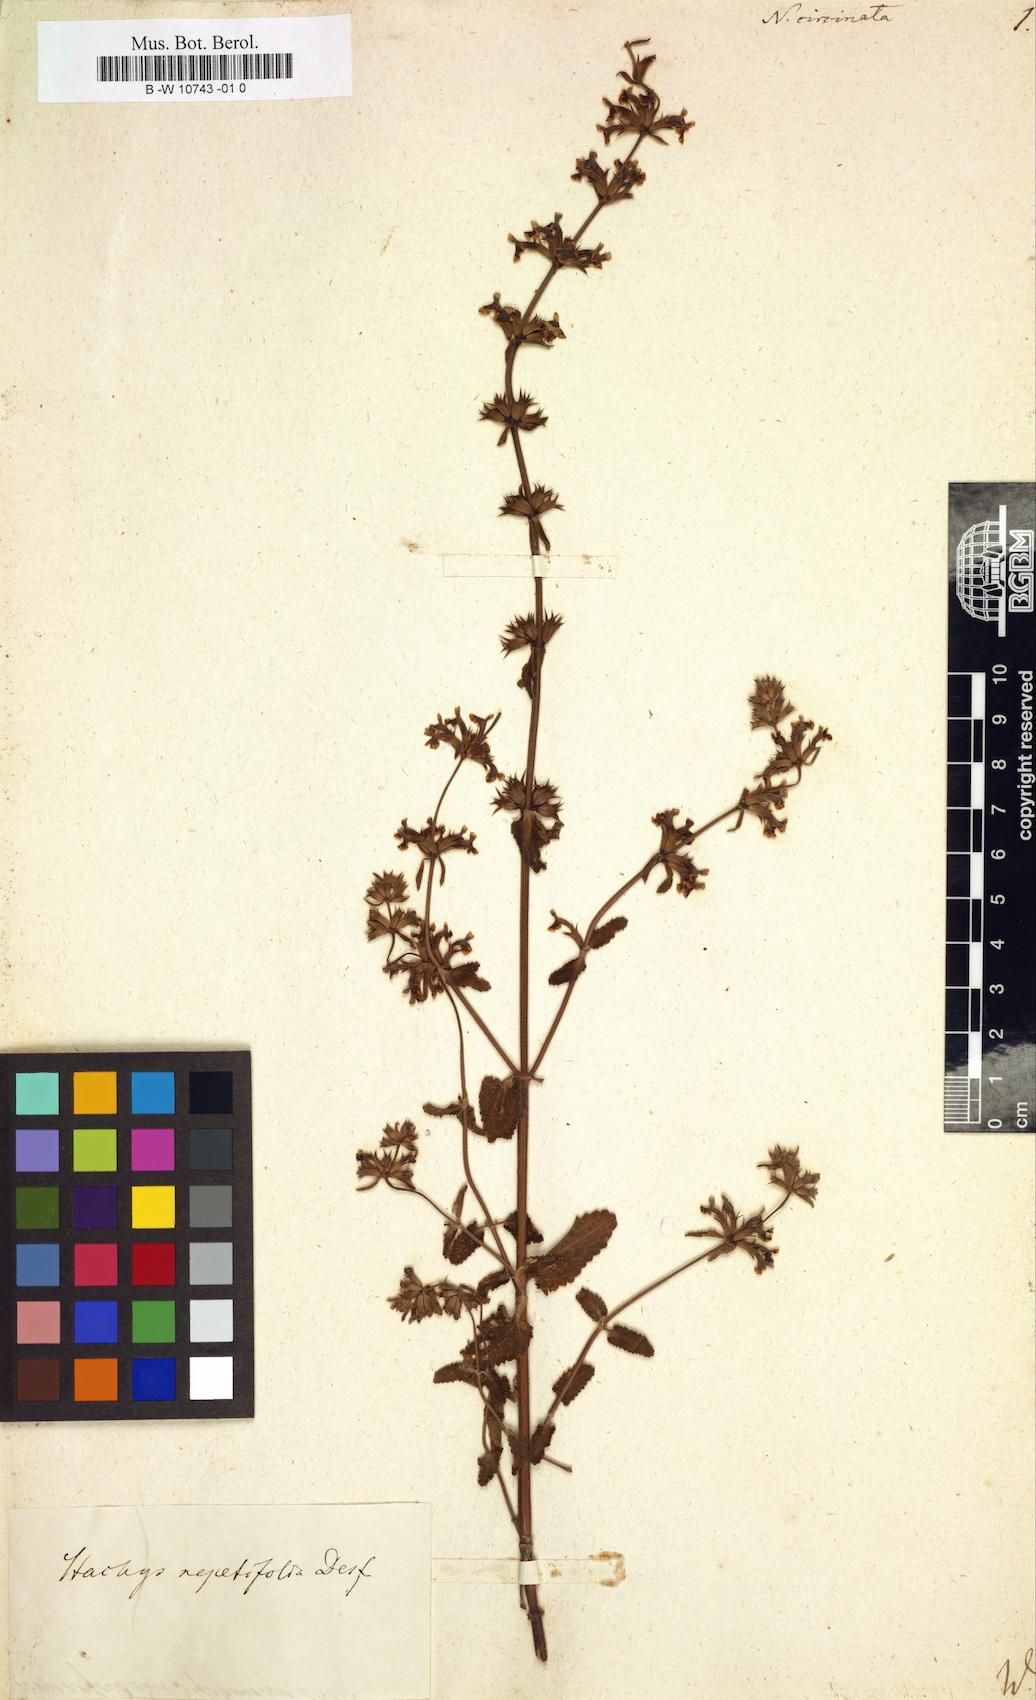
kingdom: Plantae
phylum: Tracheophyta
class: Magnoliopsida
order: Lamiales
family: Lamiaceae
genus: Stachys
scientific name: Stachys nepetifolia
